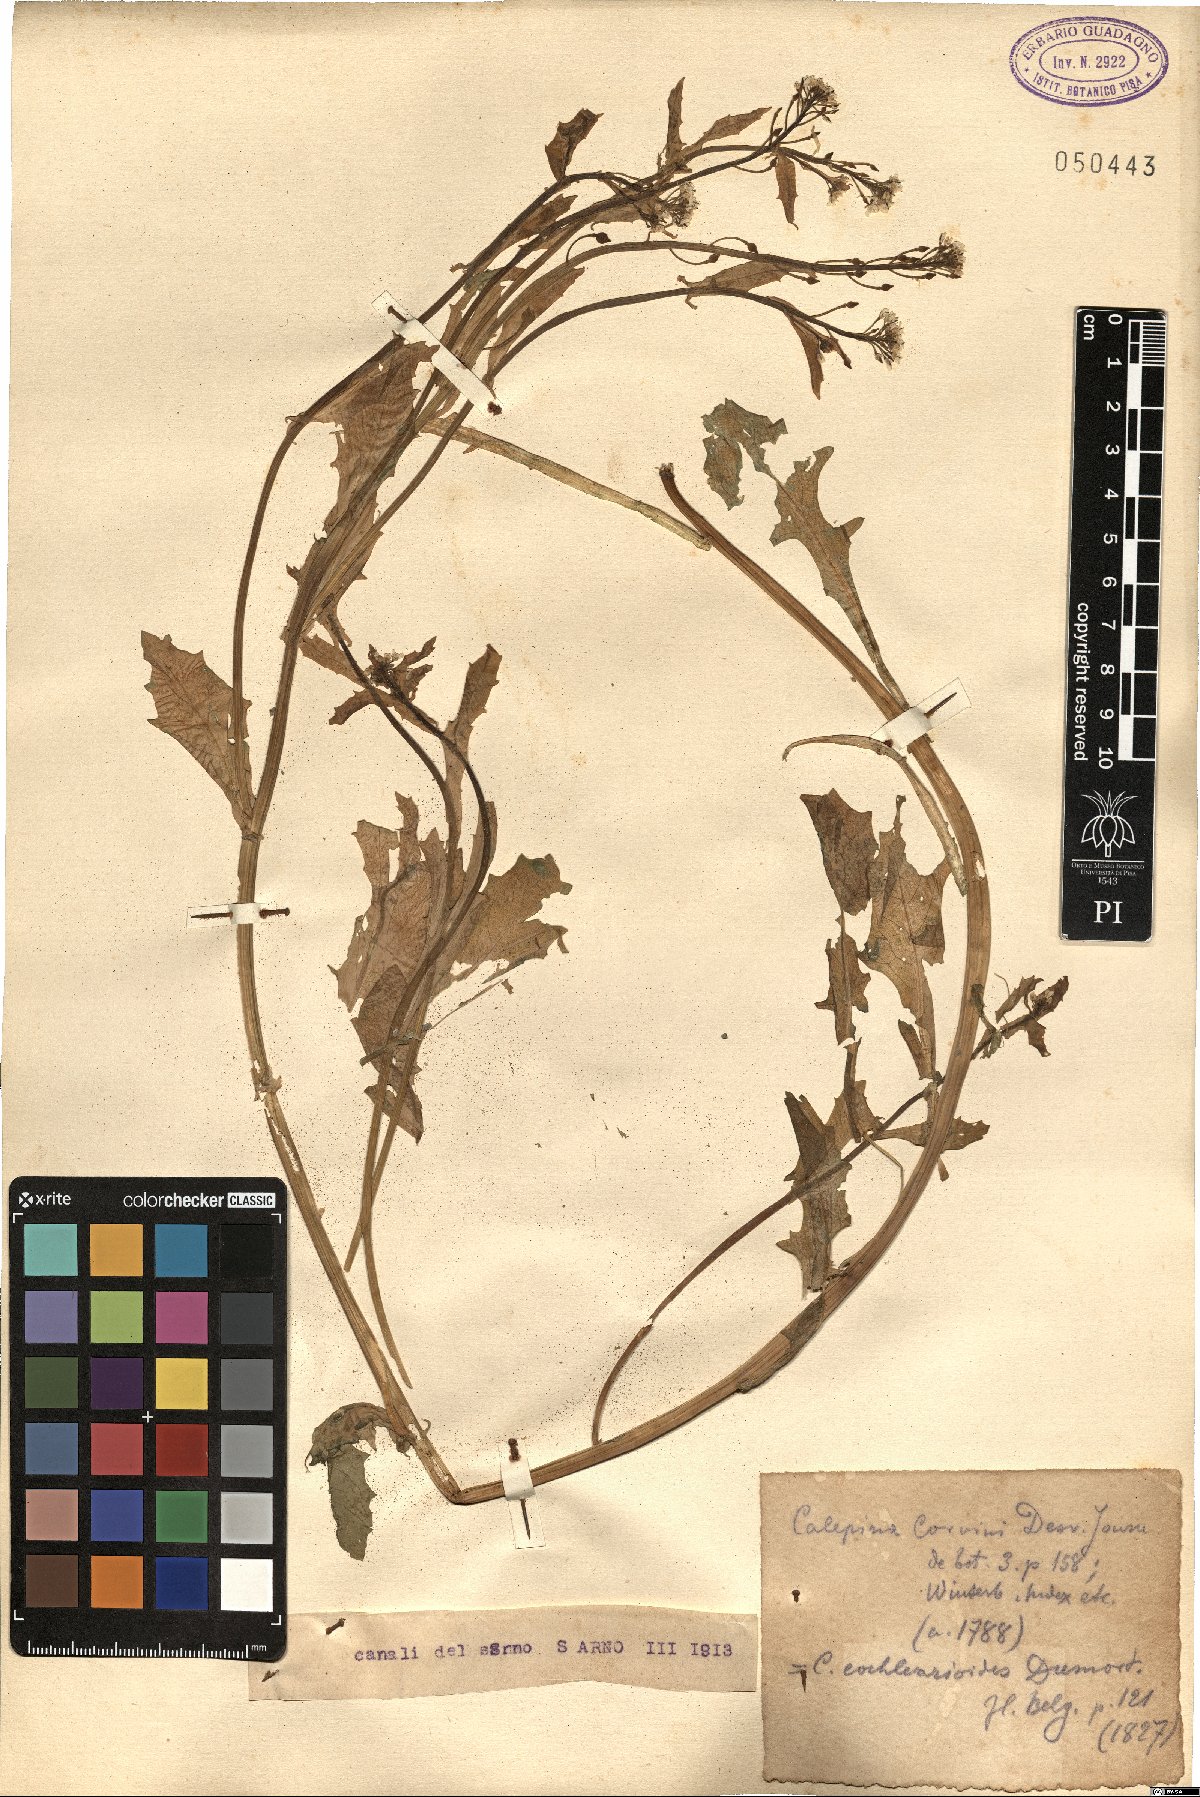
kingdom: Plantae
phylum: Tracheophyta
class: Magnoliopsida
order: Brassicales
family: Brassicaceae
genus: Calepina
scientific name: Calepina irregularis
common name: White ballmustard
